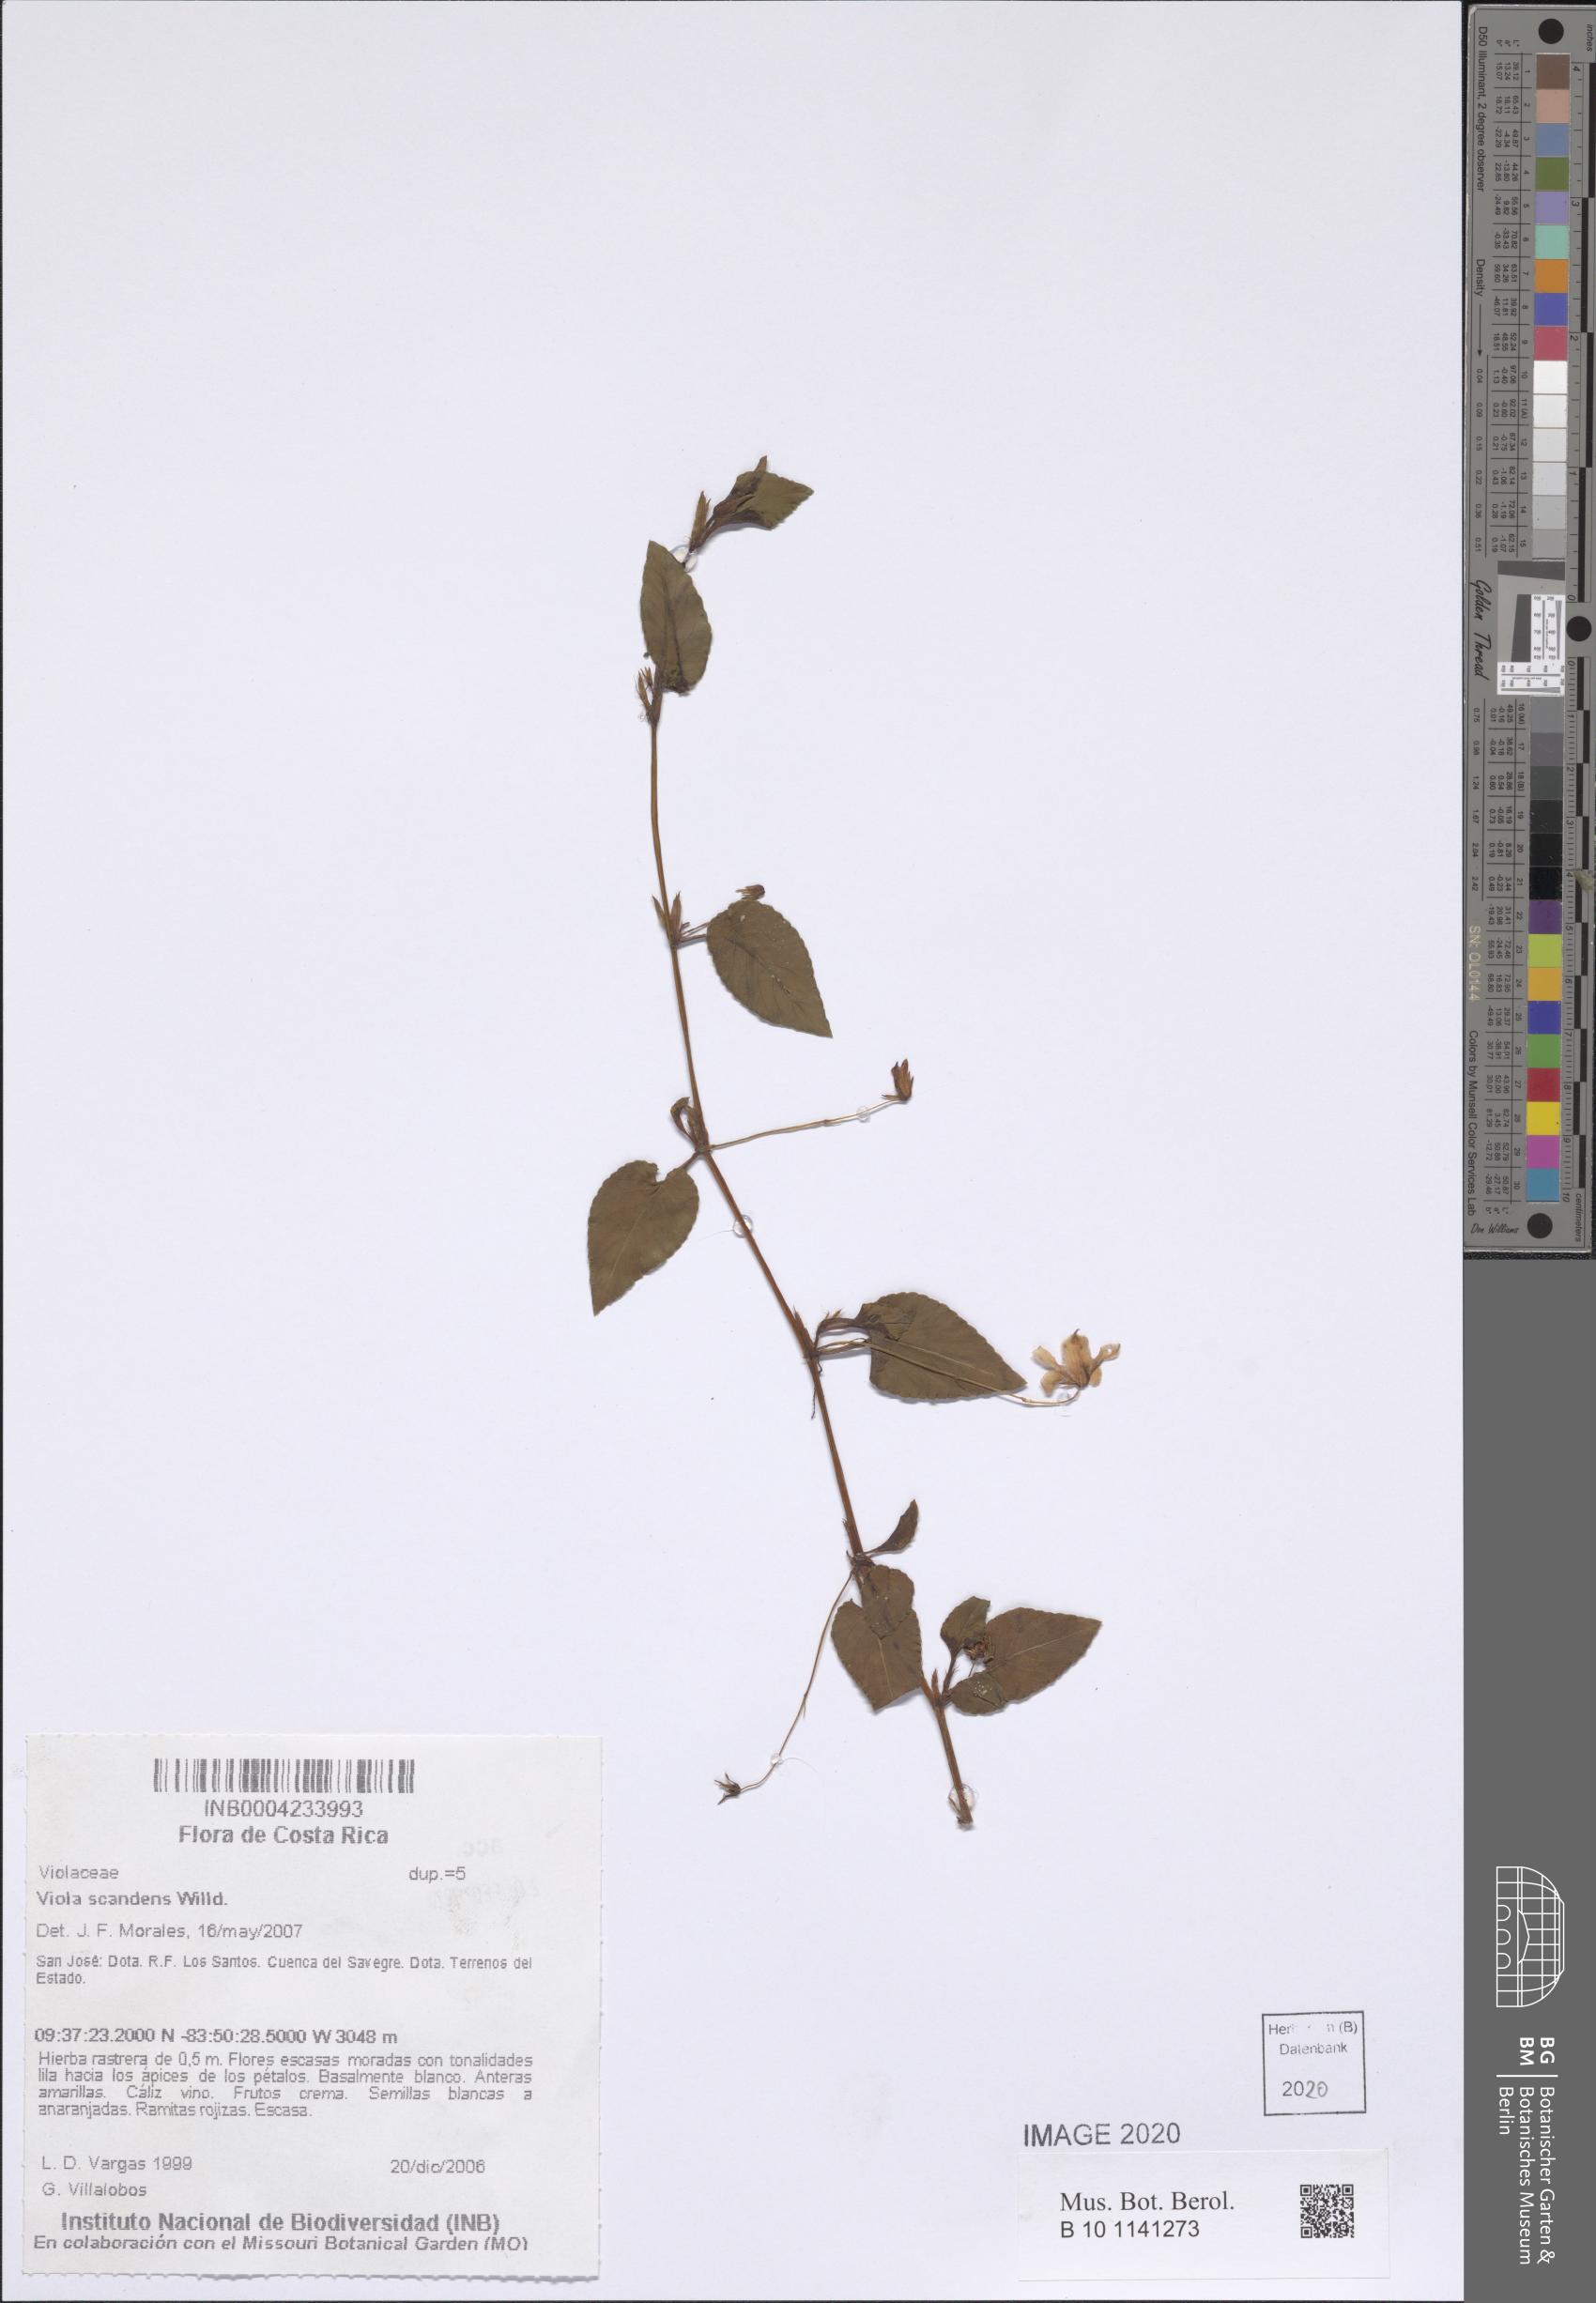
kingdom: Plantae
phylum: Tracheophyta
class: Magnoliopsida
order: Malpighiales
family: Violaceae
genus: Viola
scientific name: Viola scandens
